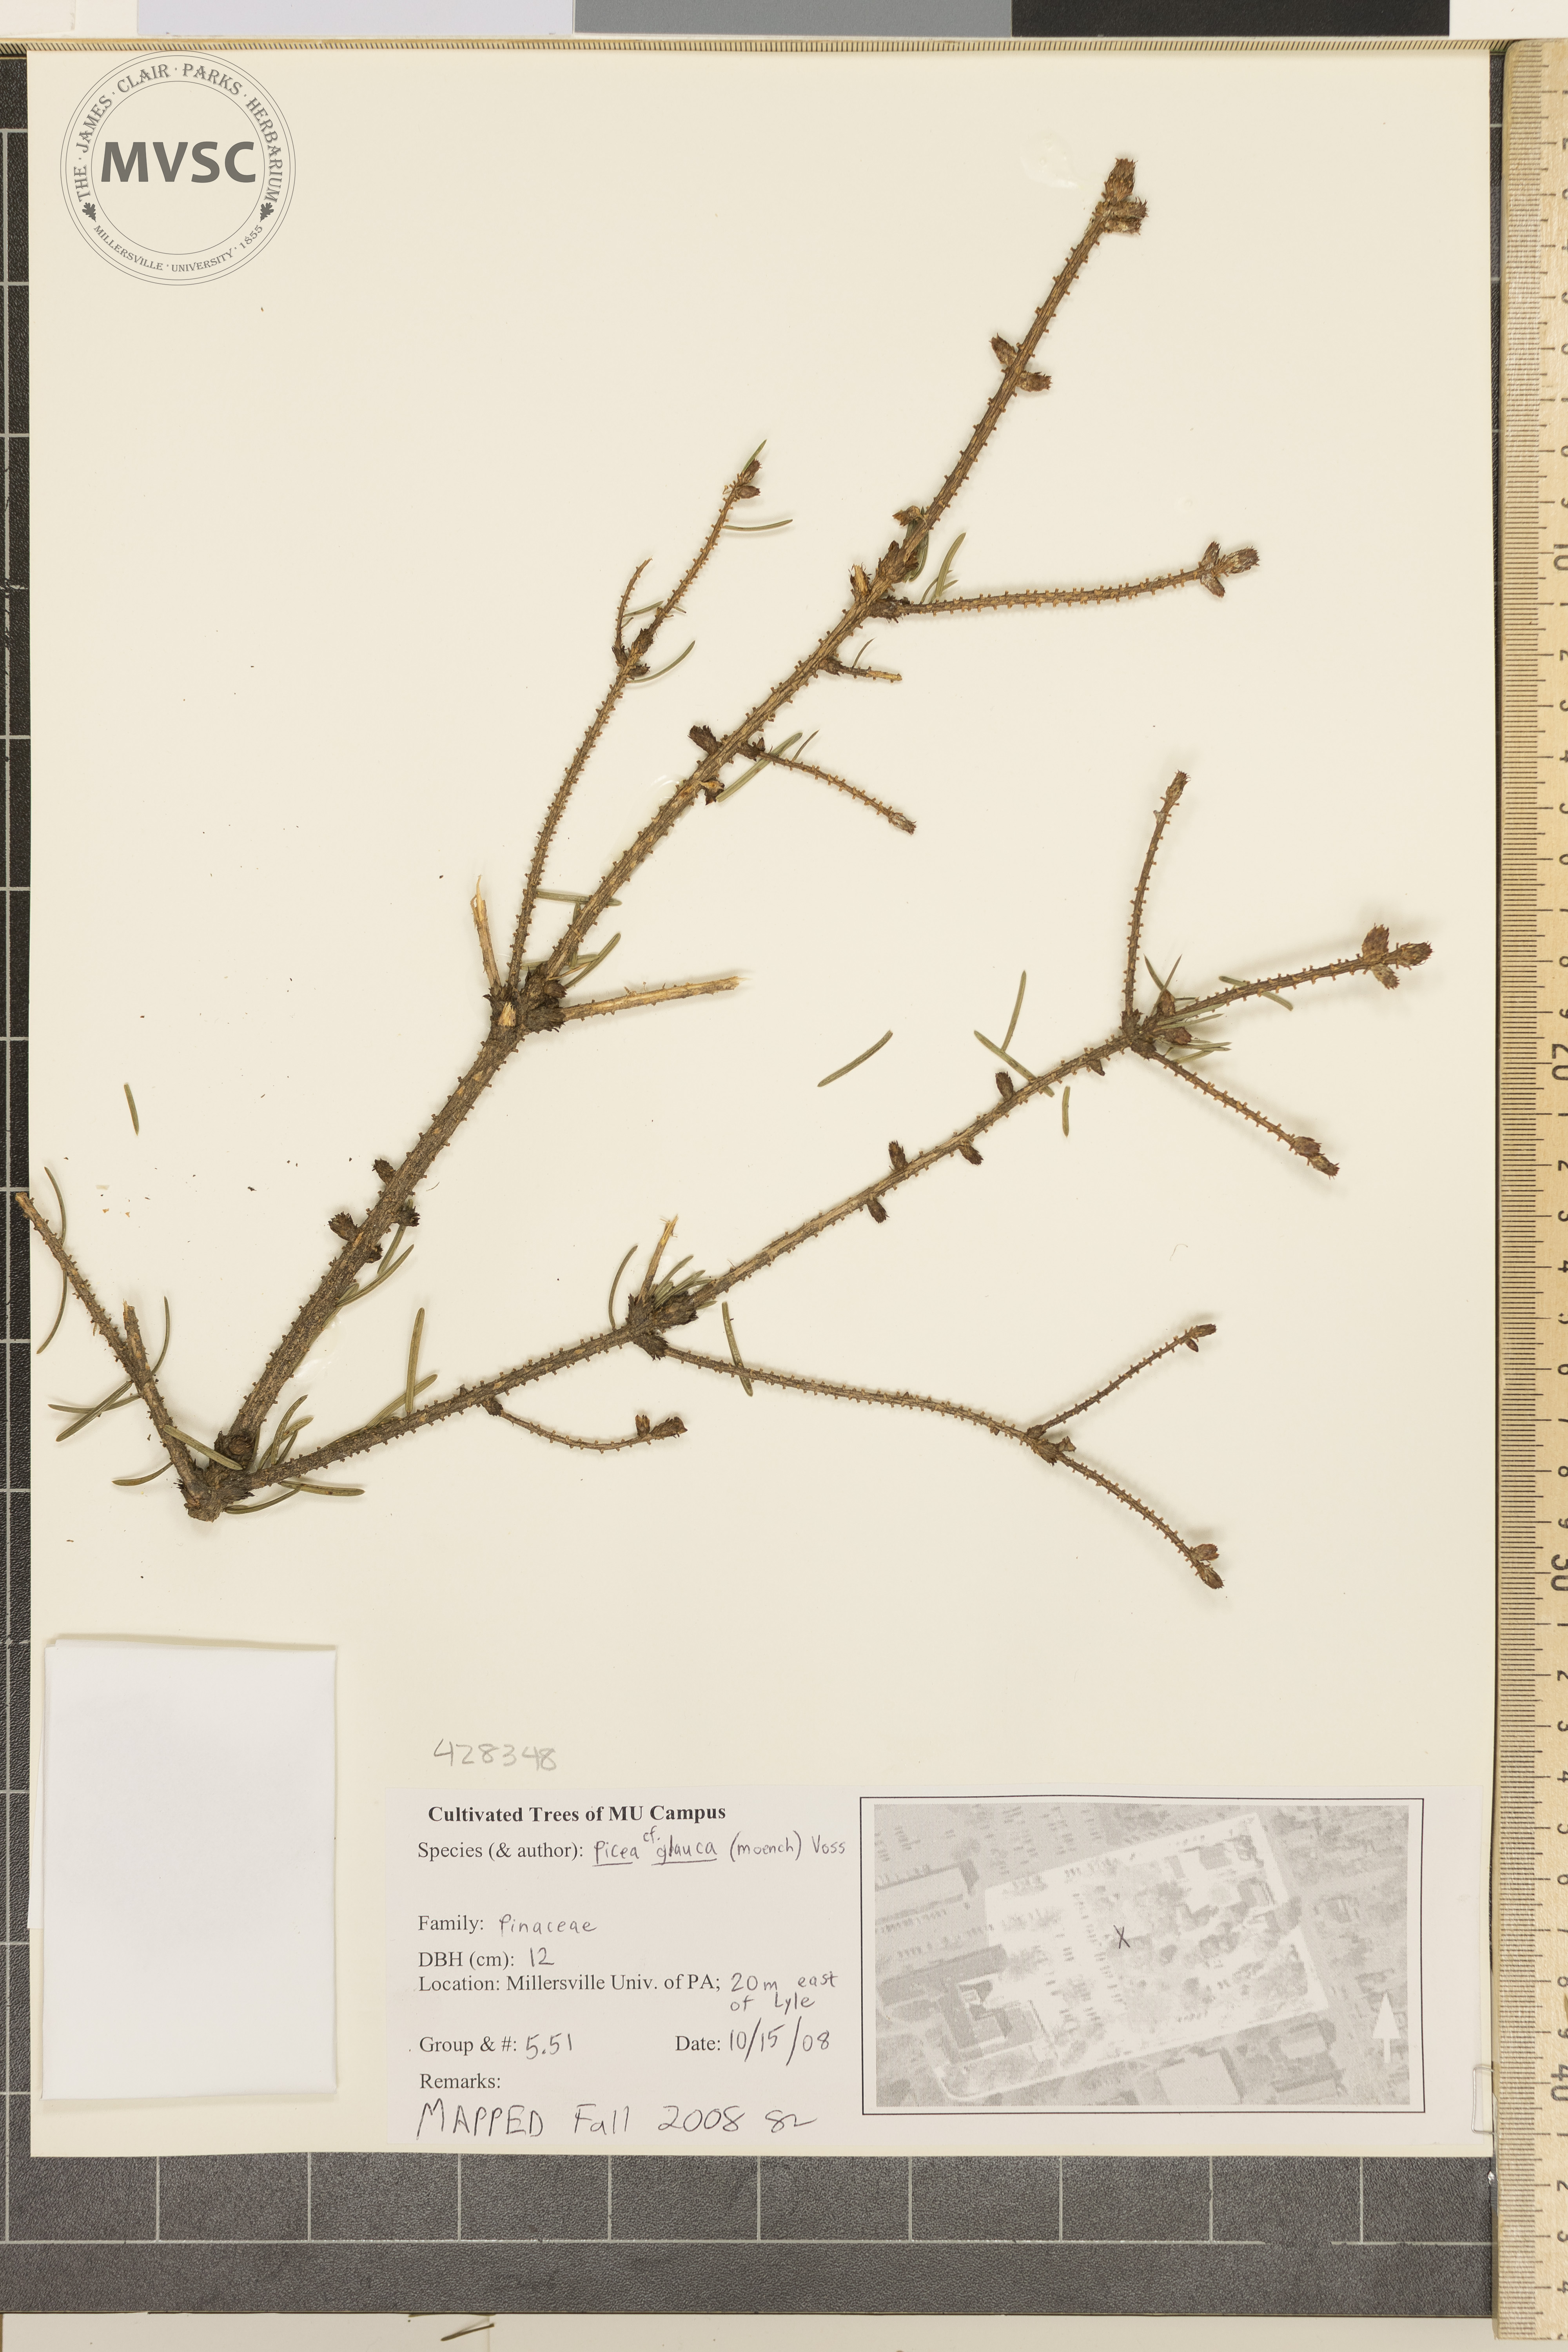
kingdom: Plantae
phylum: Tracheophyta
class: Pinopsida
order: Pinales
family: Pinaceae
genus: Picea
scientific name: Picea glauca
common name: White Spruce
